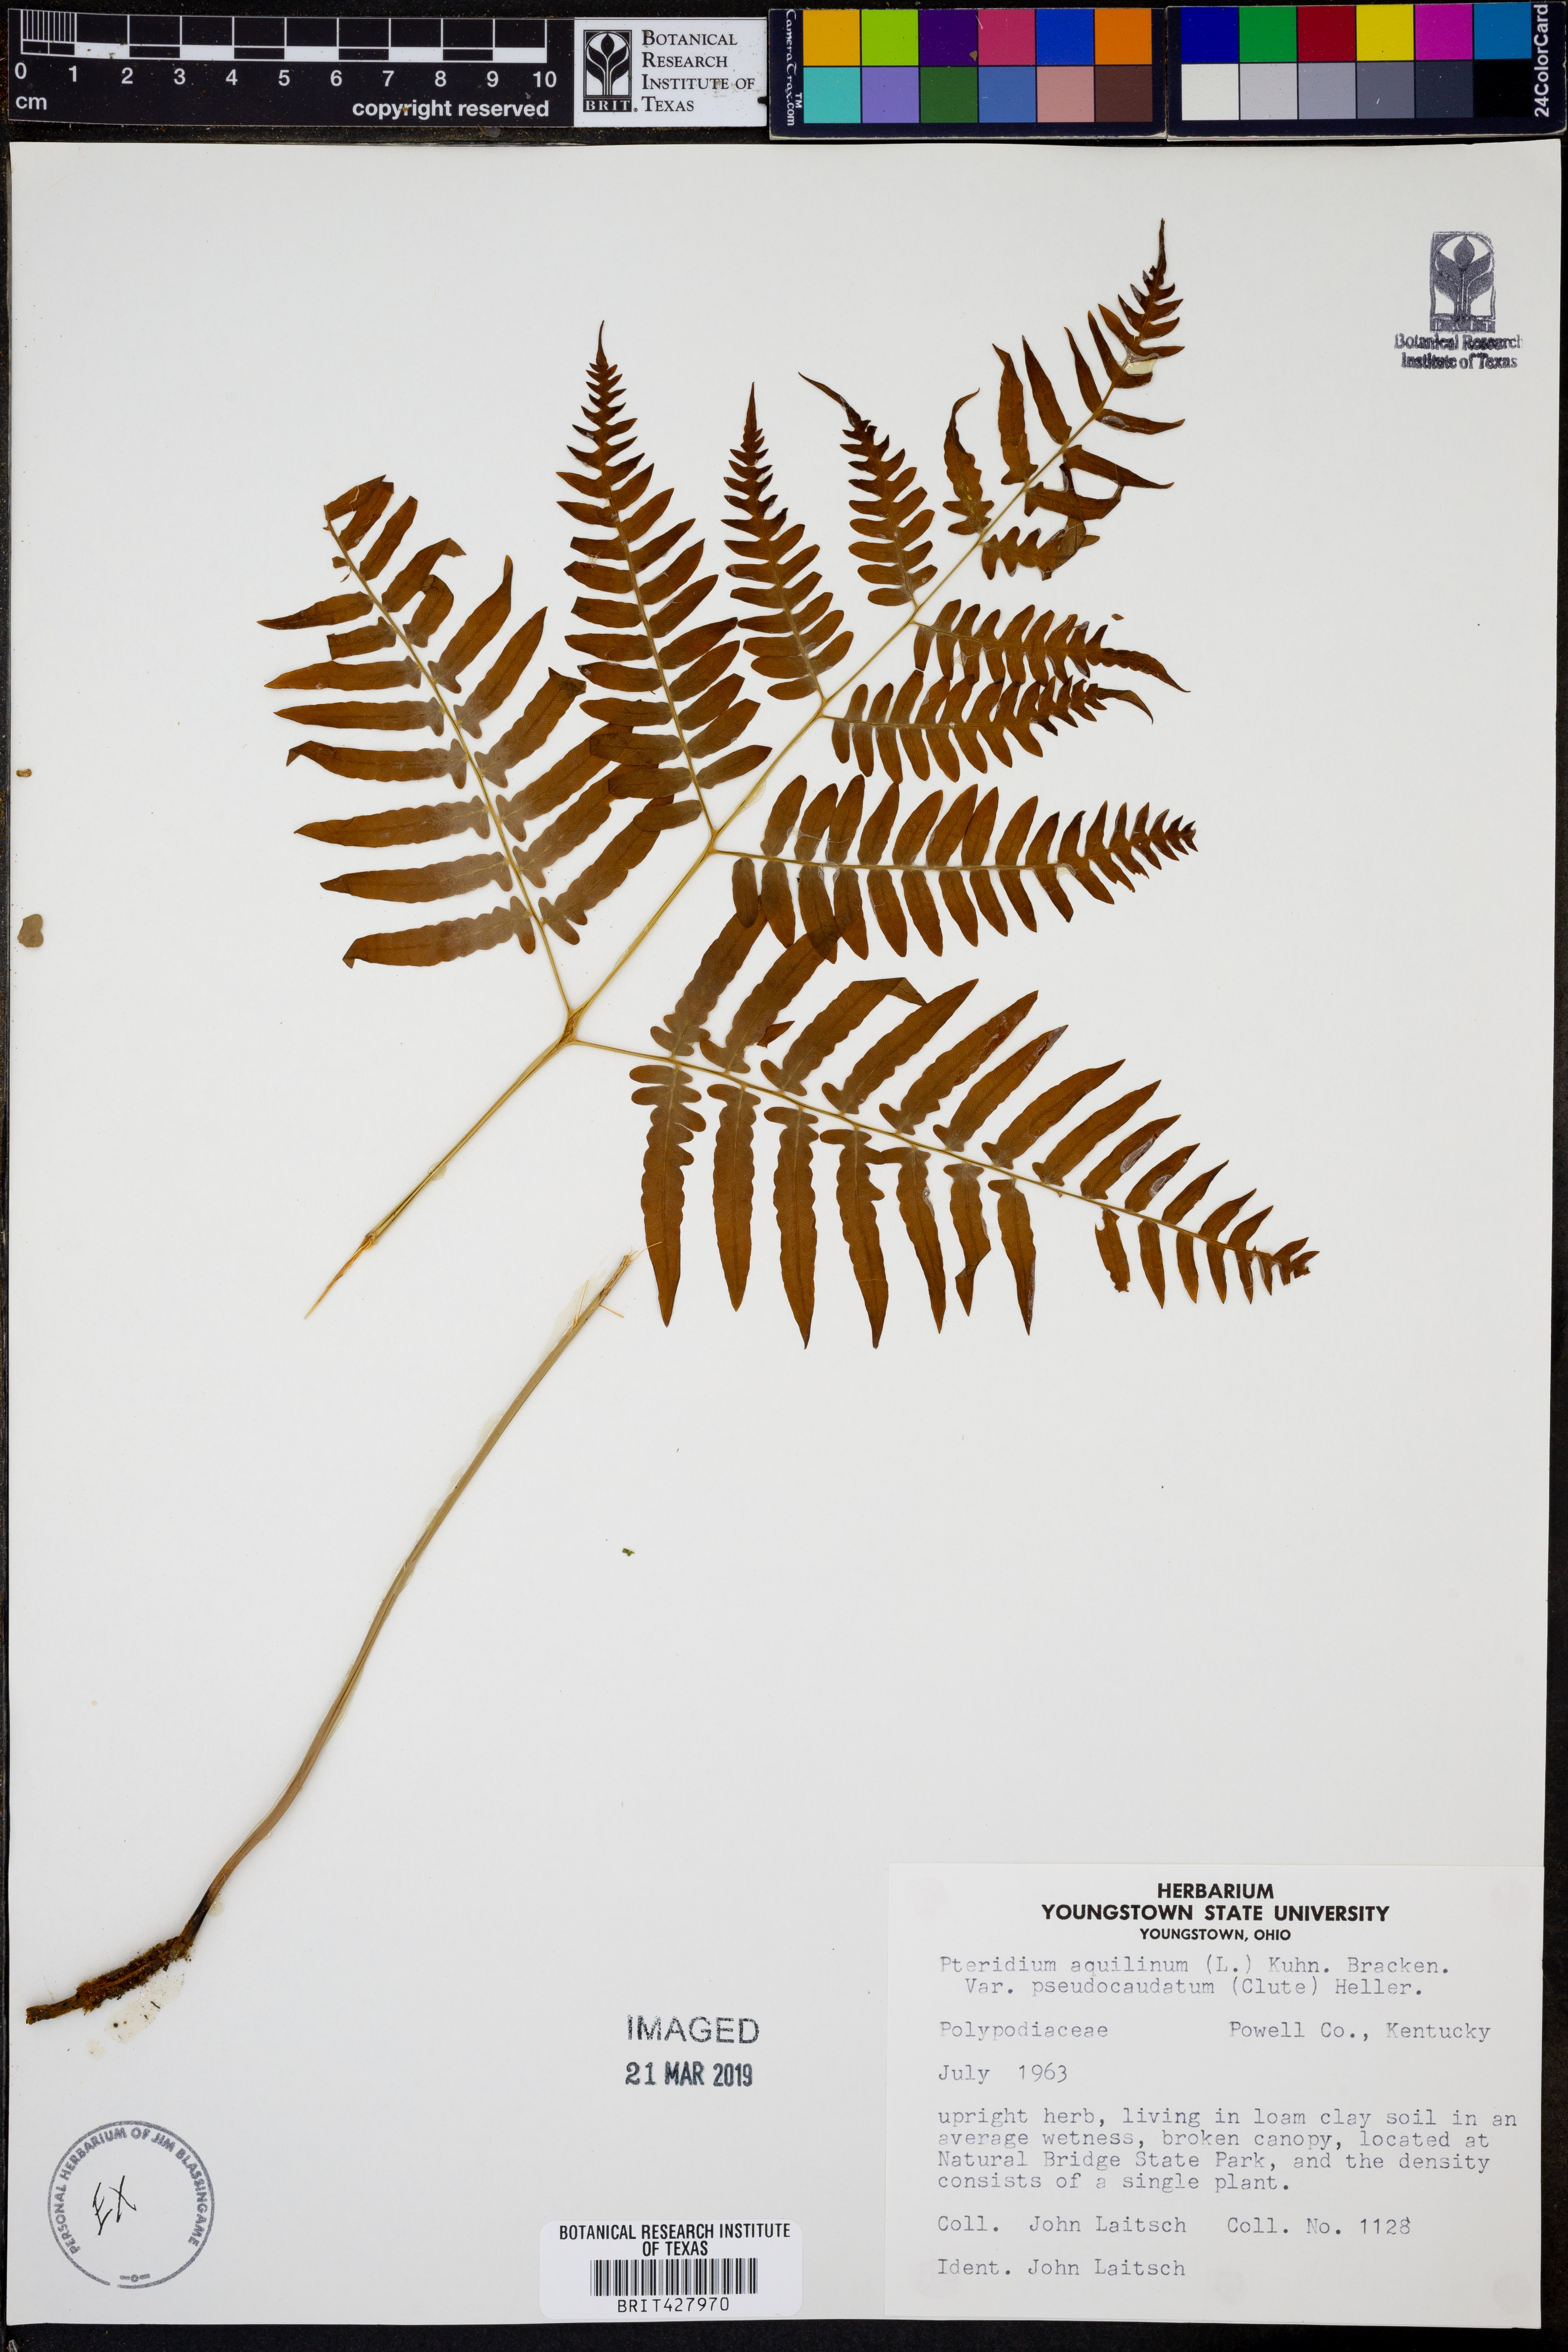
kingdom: Plantae
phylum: Tracheophyta
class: Polypodiopsida
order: Polypodiales
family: Dennstaedtiaceae
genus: Pteridium
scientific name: Pteridium aquilinum
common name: Bracken
